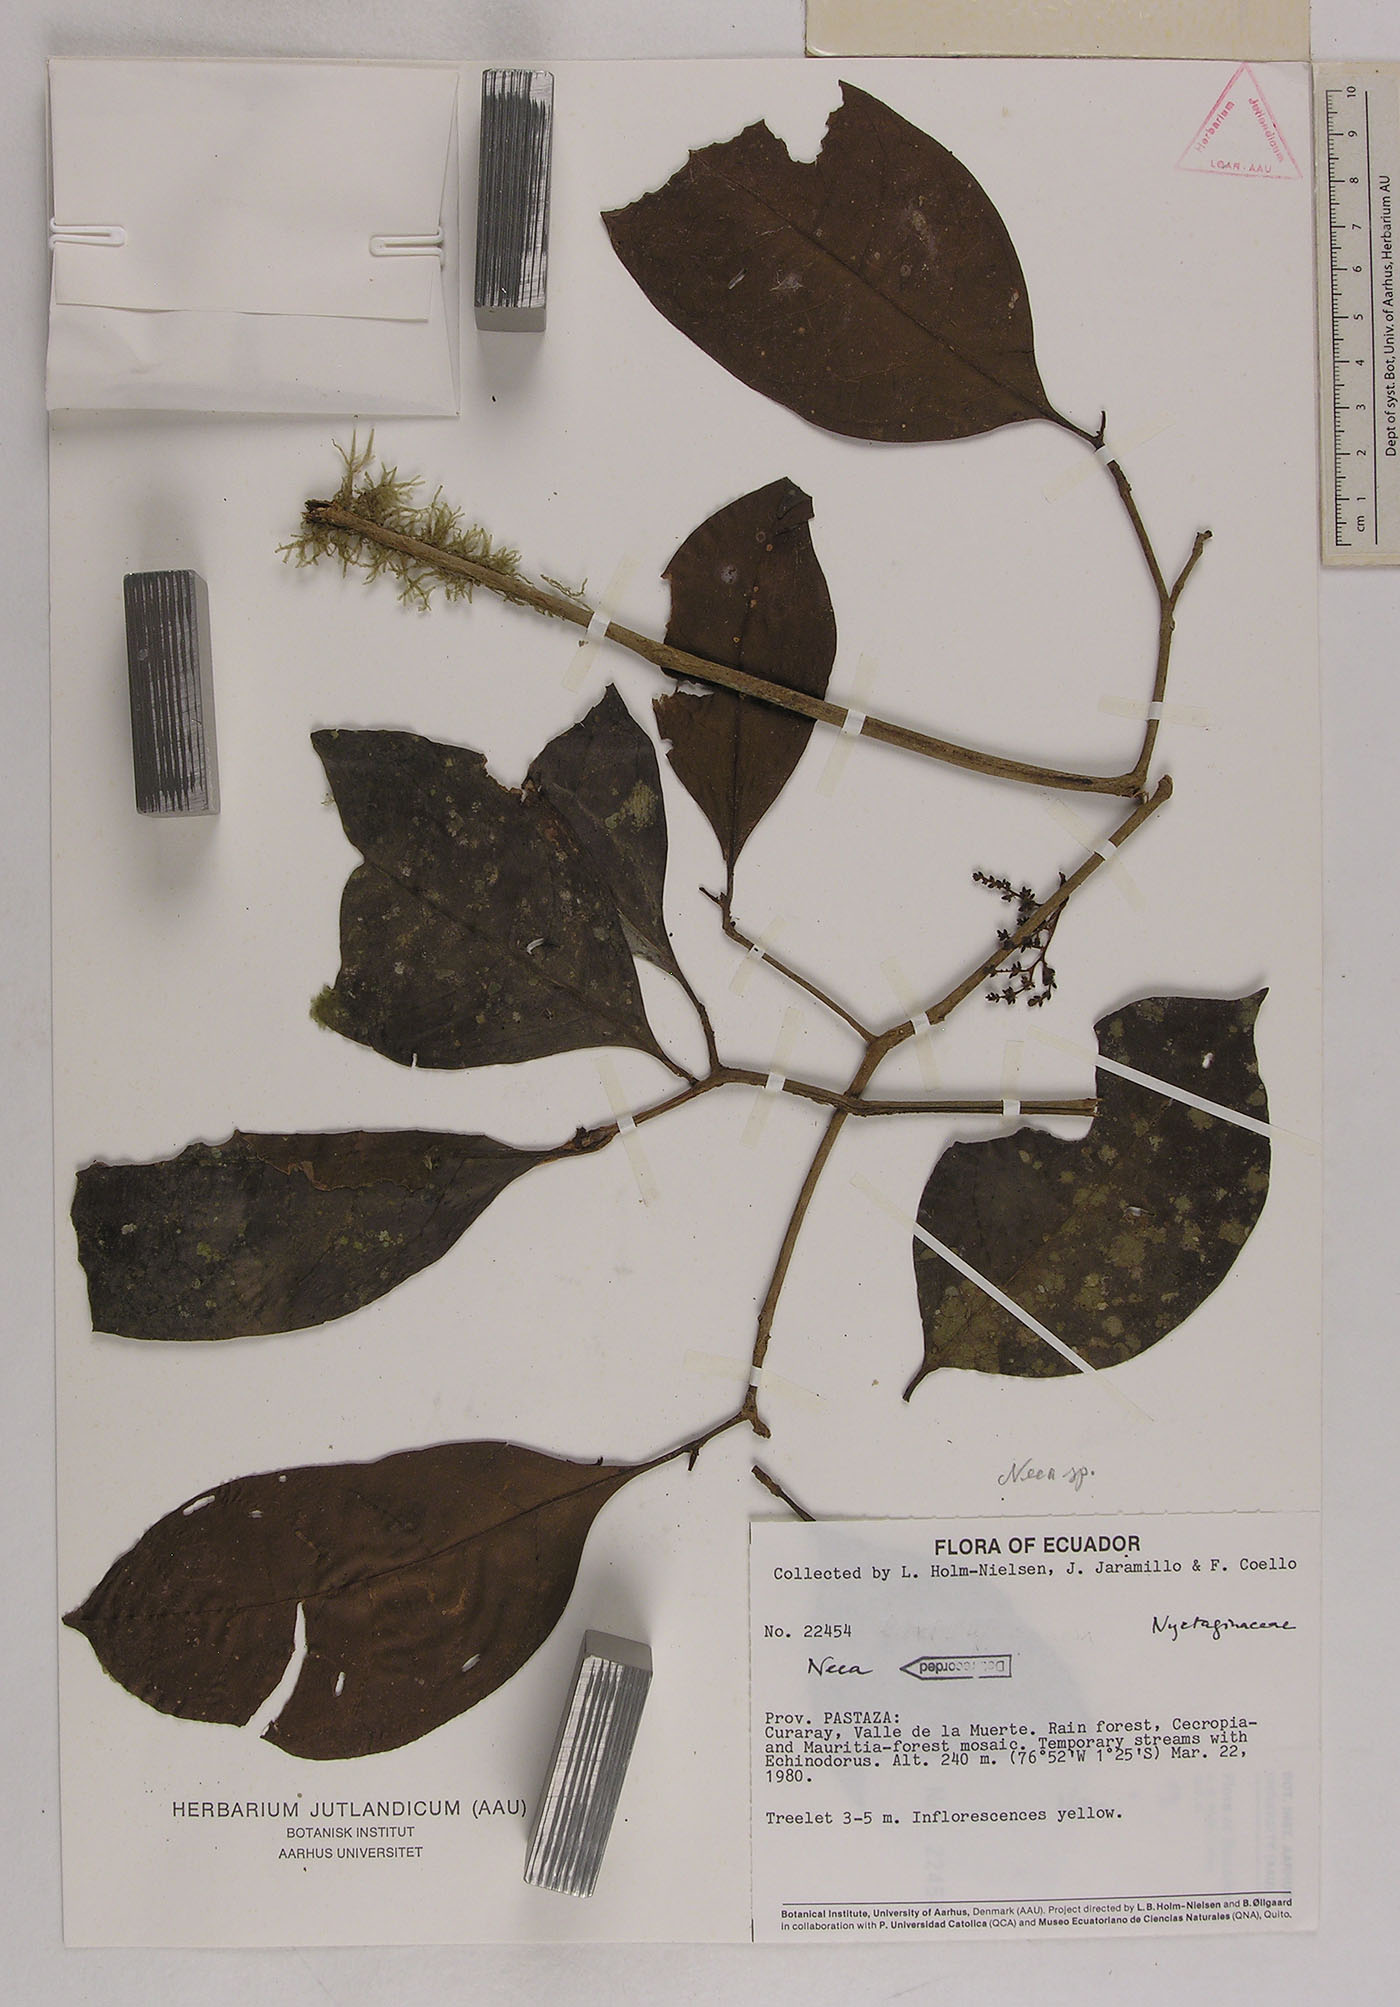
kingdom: Plantae
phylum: Tracheophyta
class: Magnoliopsida
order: Caryophyllales
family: Nyctaginaceae
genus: Neea
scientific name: Neea
